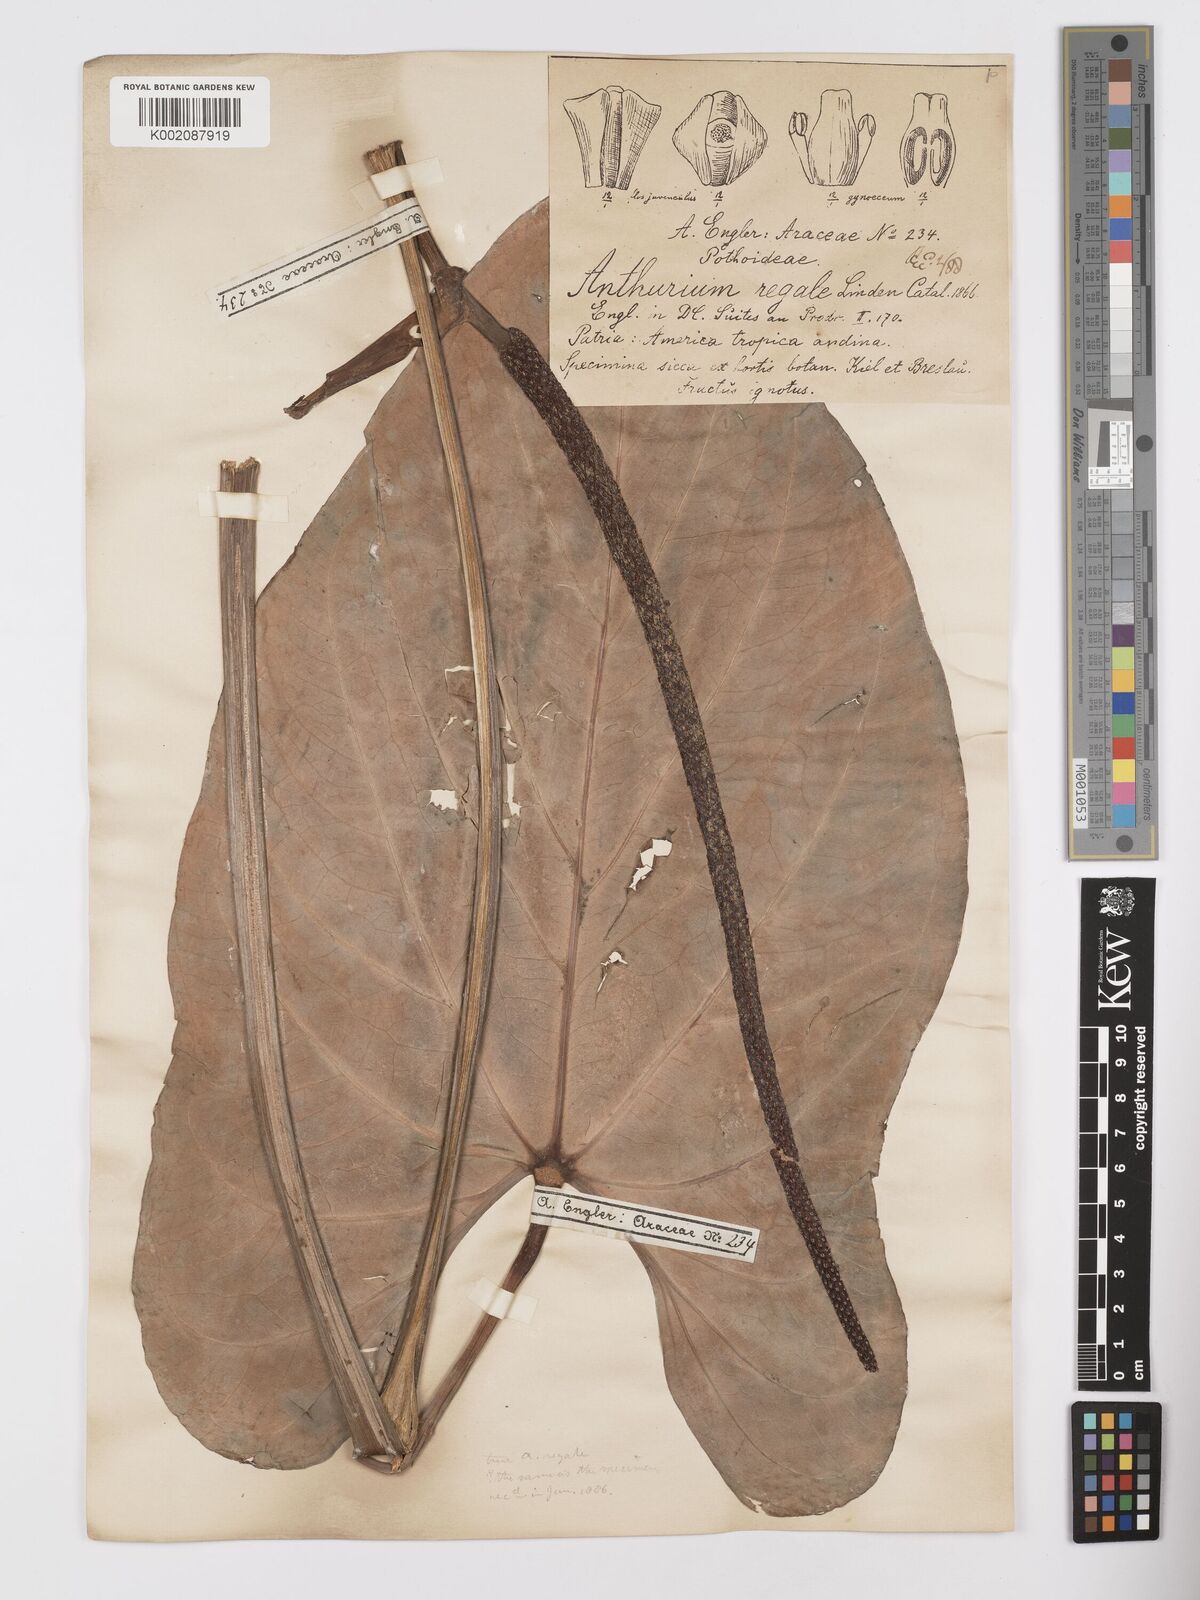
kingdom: Plantae
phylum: Tracheophyta
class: Liliopsida
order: Alismatales
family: Araceae
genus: Anthurium
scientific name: Anthurium regale
